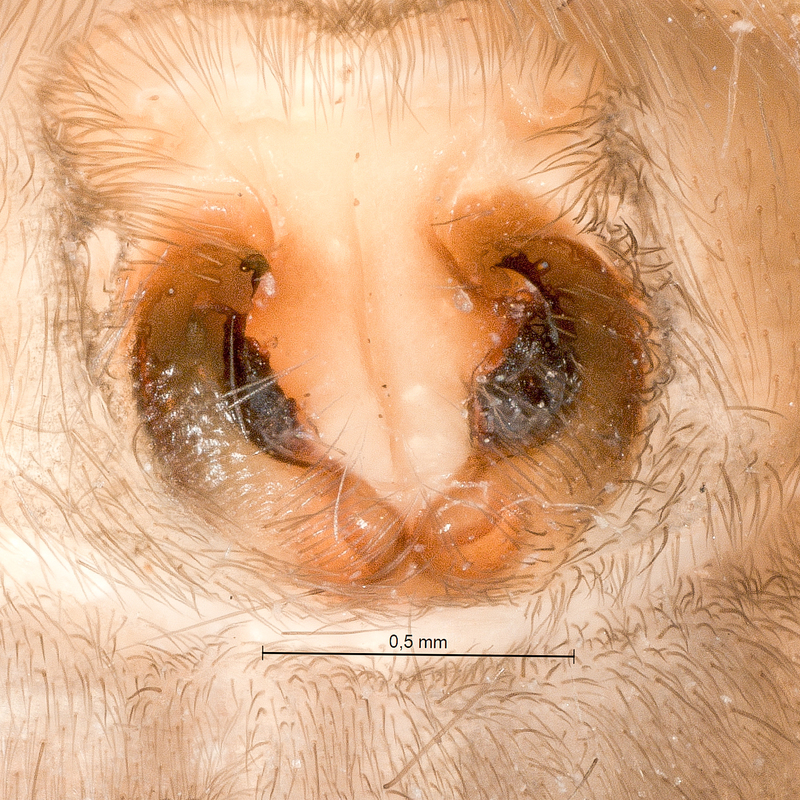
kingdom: Animalia
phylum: Arthropoda
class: Arachnida
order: Araneae
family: Gnaphosidae
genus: Haplodrassus
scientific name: Haplodrassus signifer
